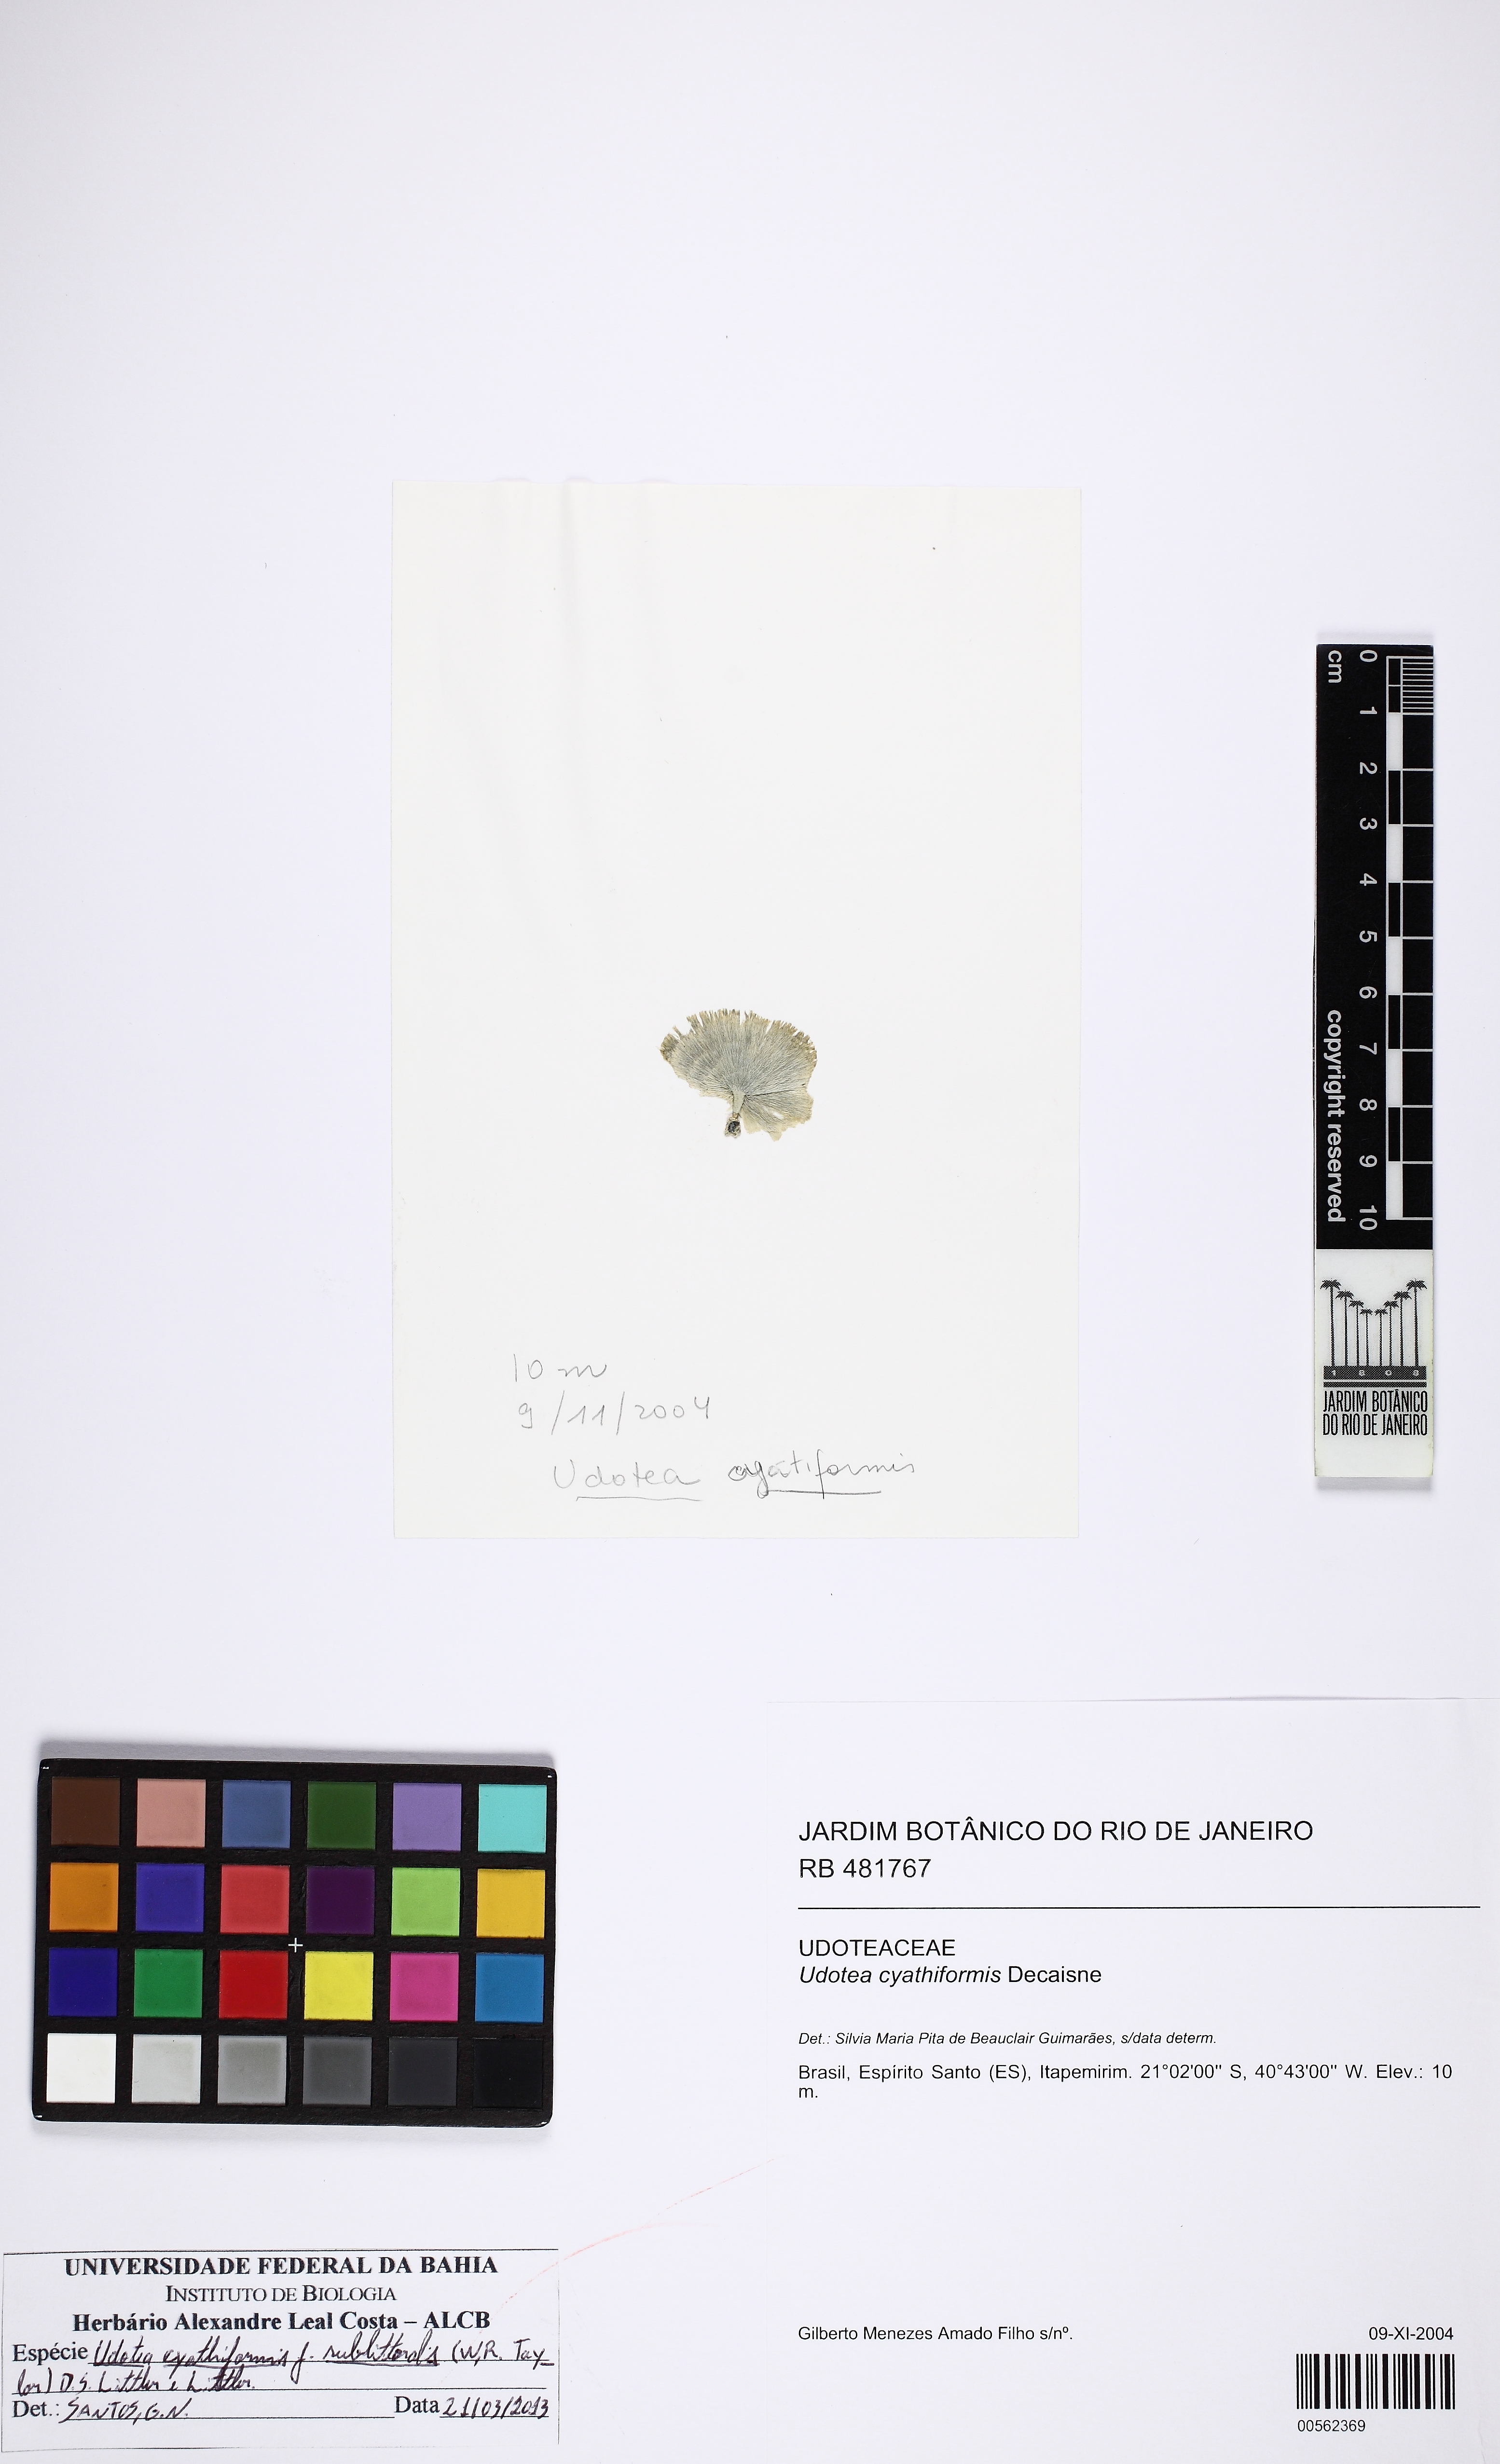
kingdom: Plantae
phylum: Chlorophyta
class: Ulvophyceae
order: Bryopsidales
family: Udoteaceae
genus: Udotea
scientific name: Udotea cyathiformis
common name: Mermaid's tea cup
